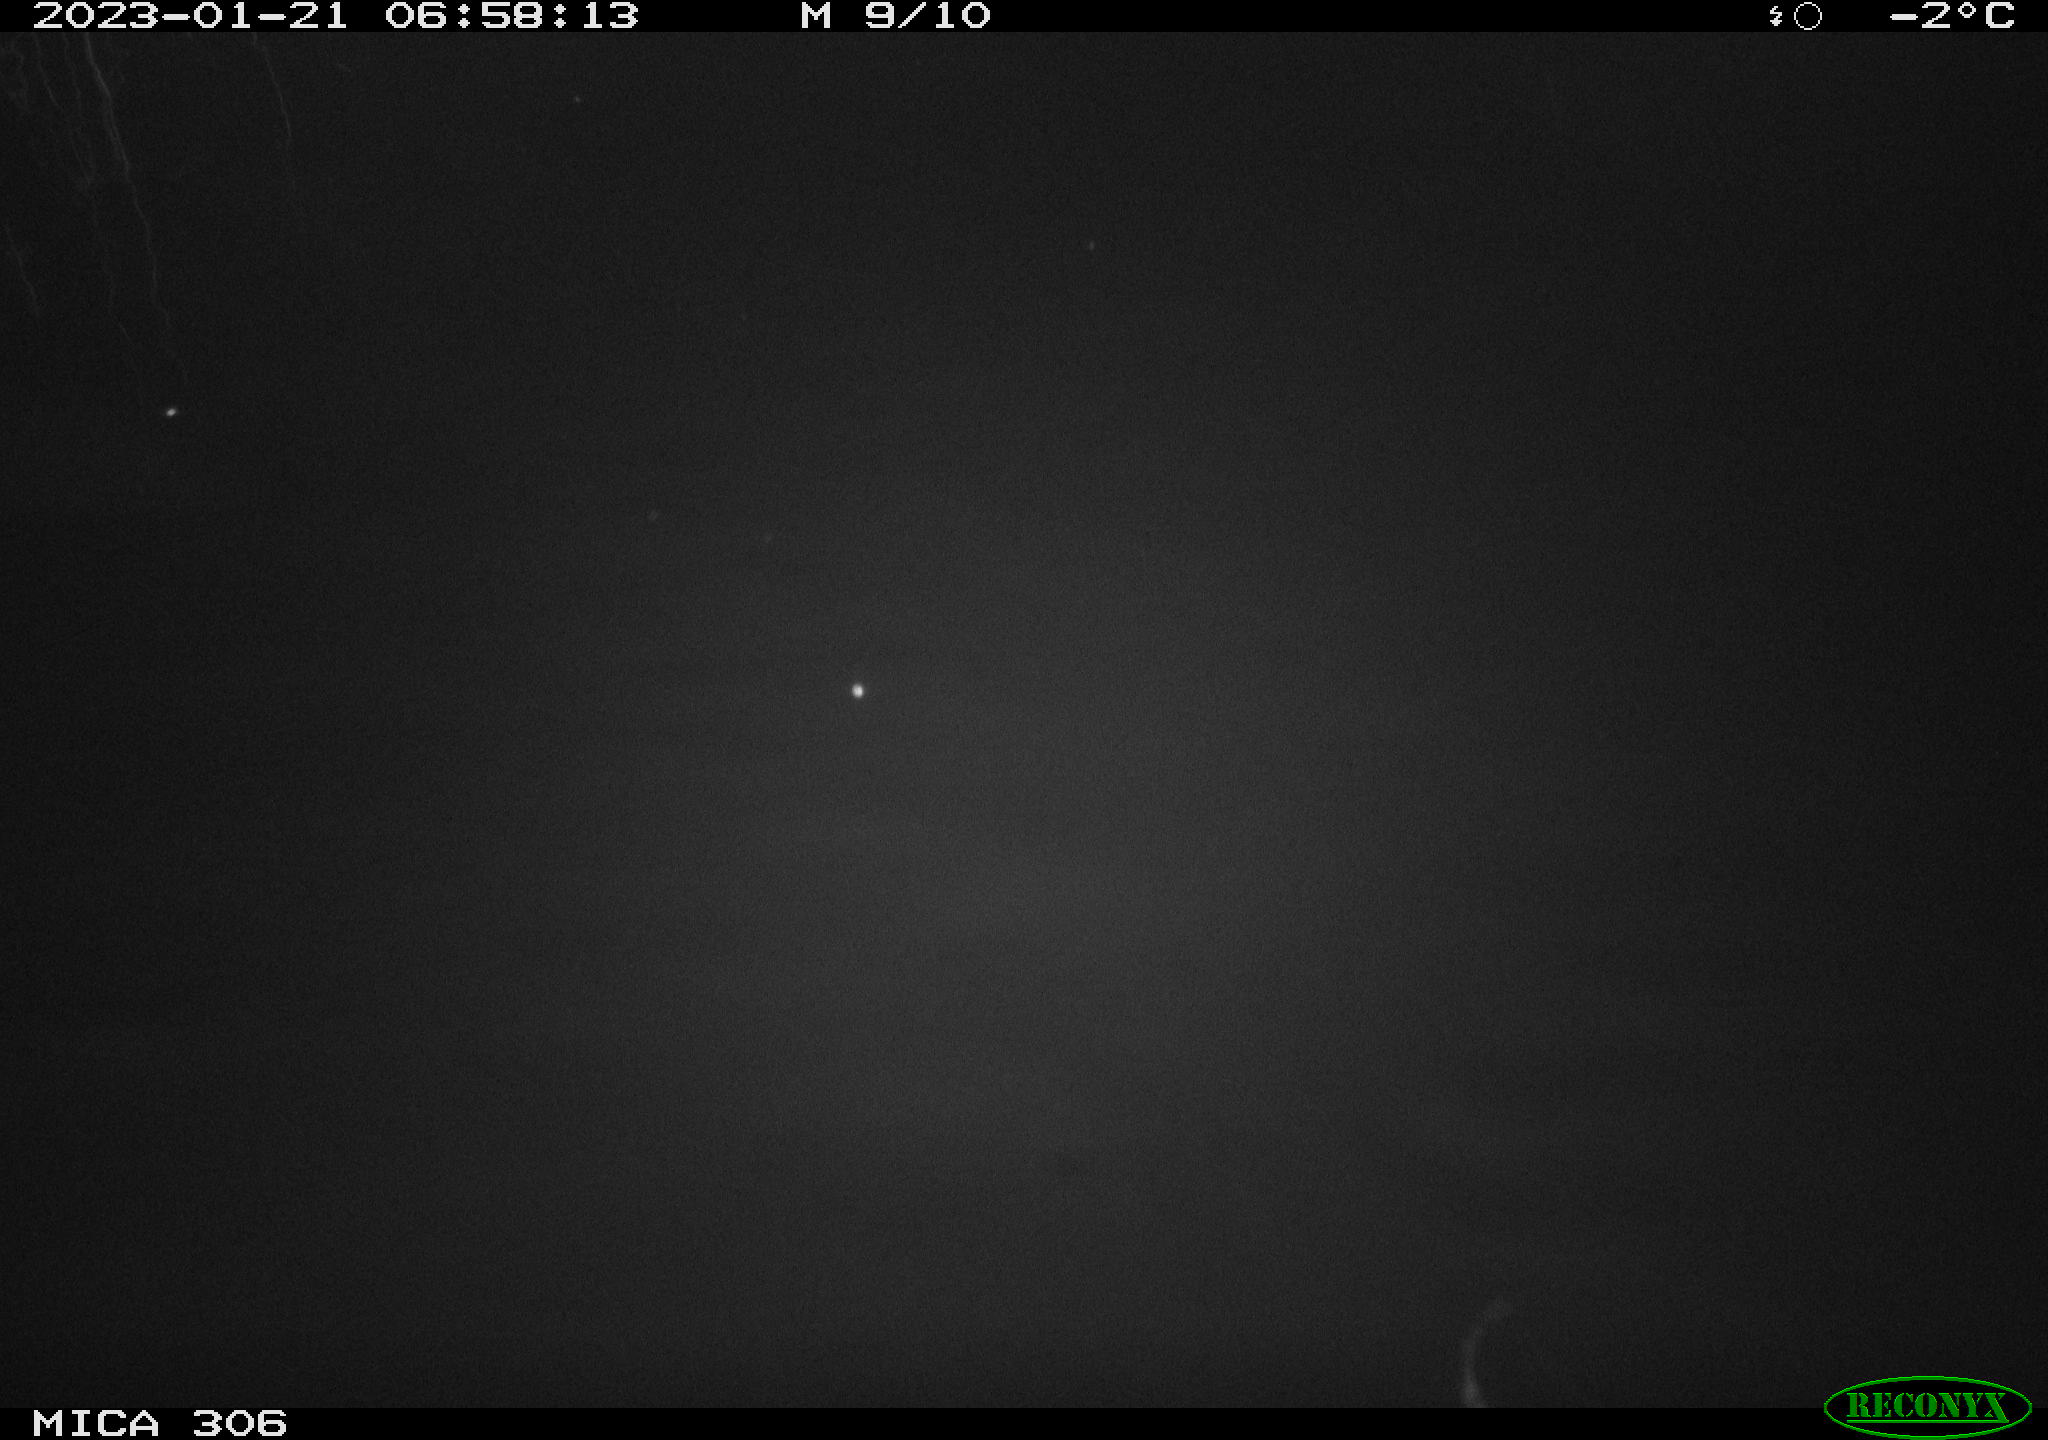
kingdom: Animalia
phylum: Chordata
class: Mammalia
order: Rodentia
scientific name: Rodentia
